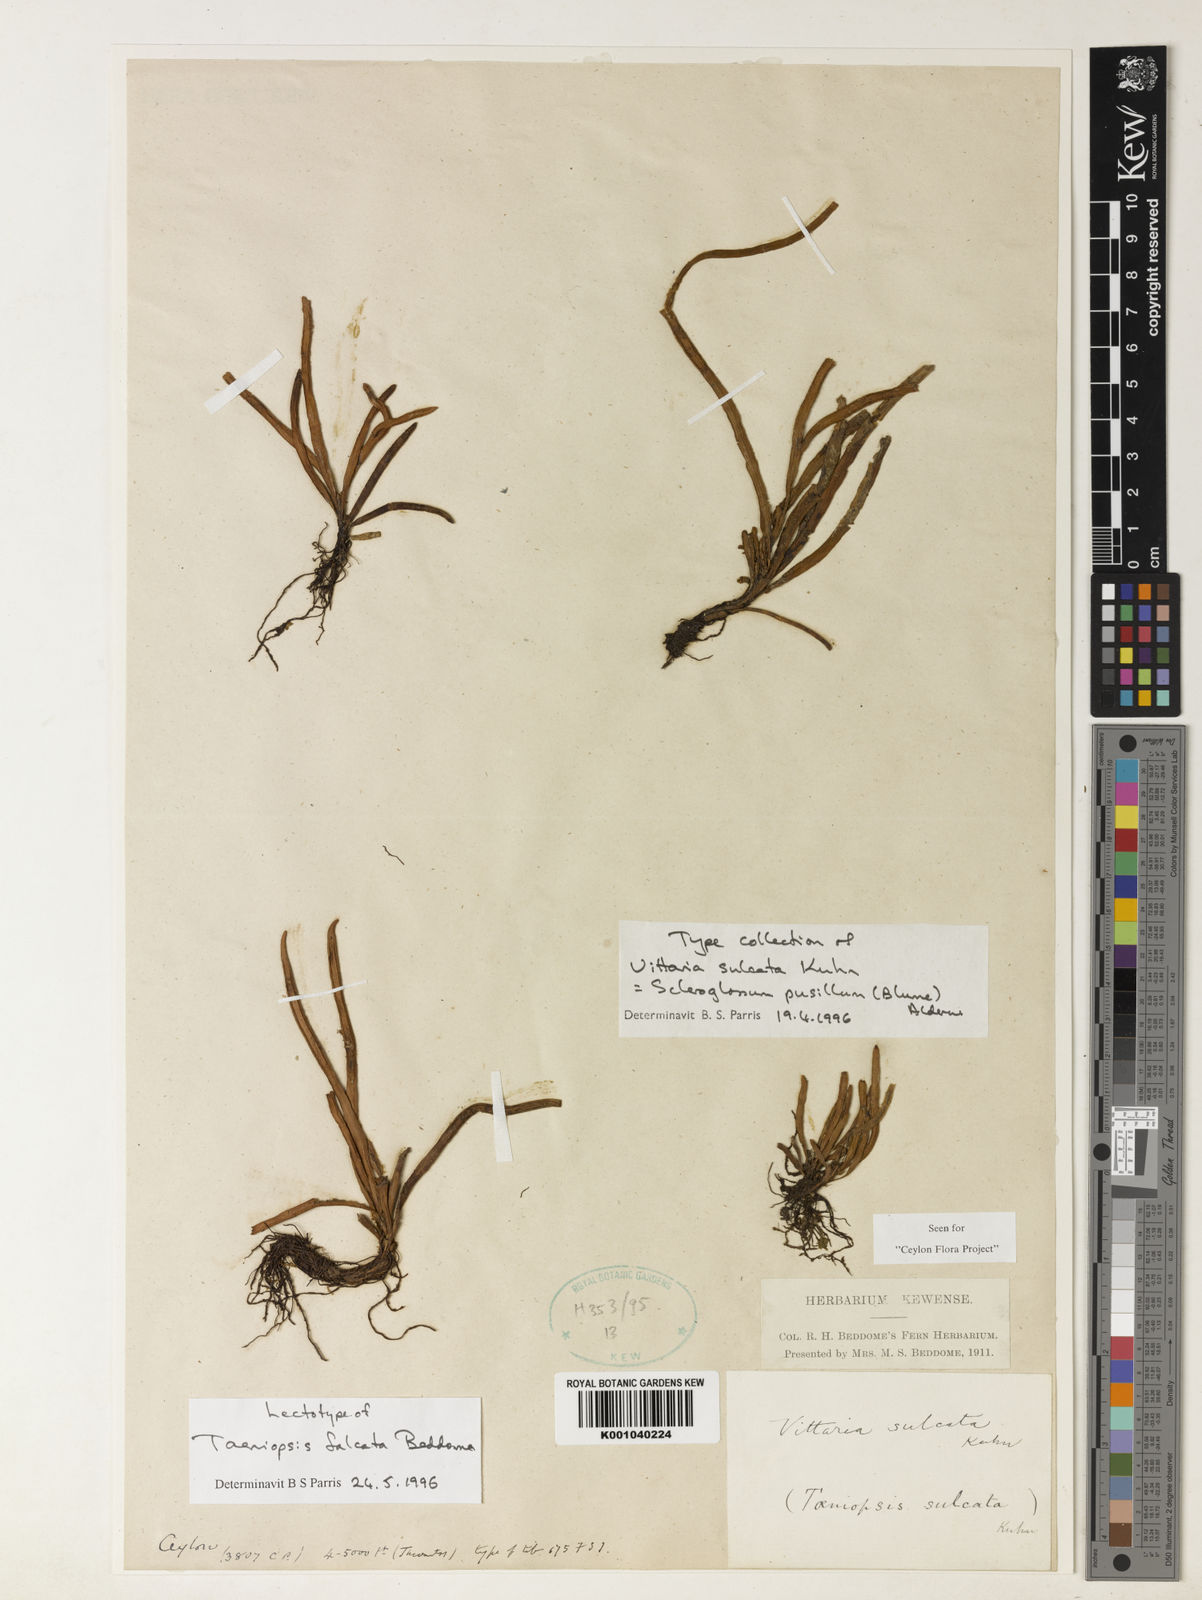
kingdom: Plantae
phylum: Tracheophyta
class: Polypodiopsida
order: Polypodiales
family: Polypodiaceae
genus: Scleroglossum
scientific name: Scleroglossum sulcatum
